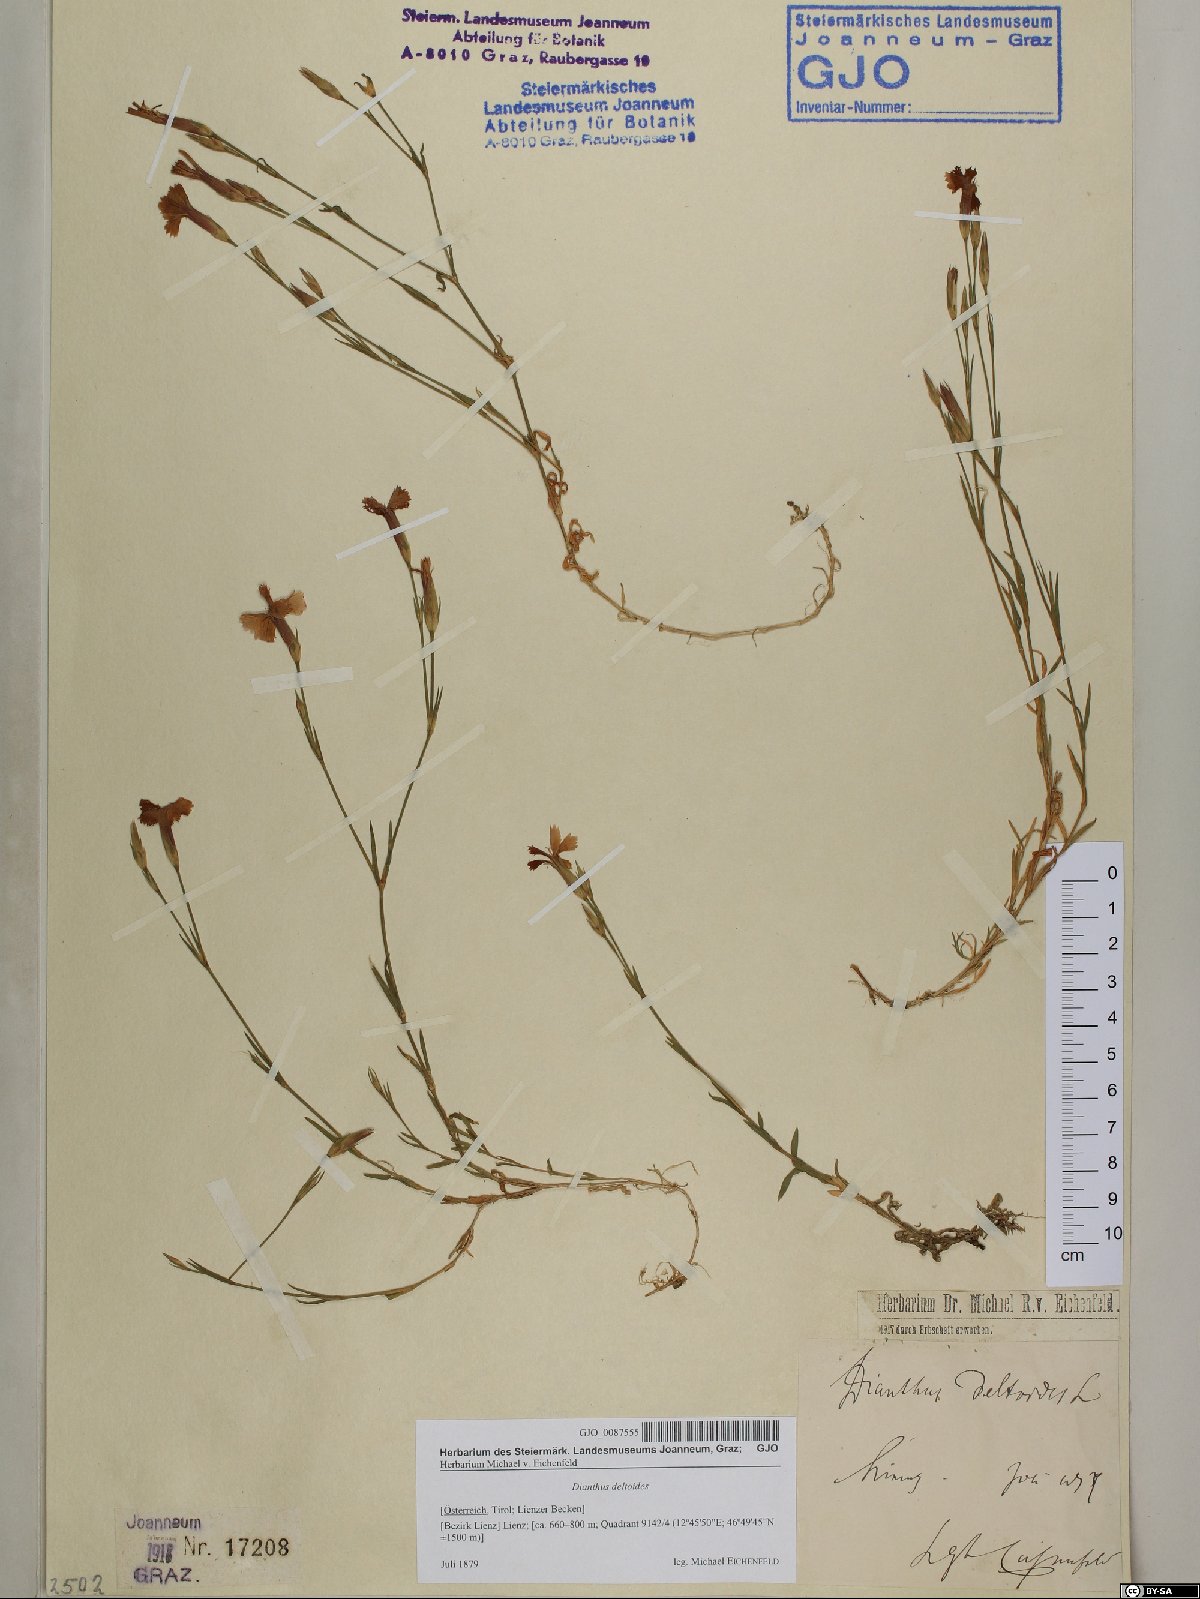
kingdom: Plantae
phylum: Tracheophyta
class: Magnoliopsida
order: Caryophyllales
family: Caryophyllaceae
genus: Dianthus
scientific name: Dianthus deltoides
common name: Maiden pink
